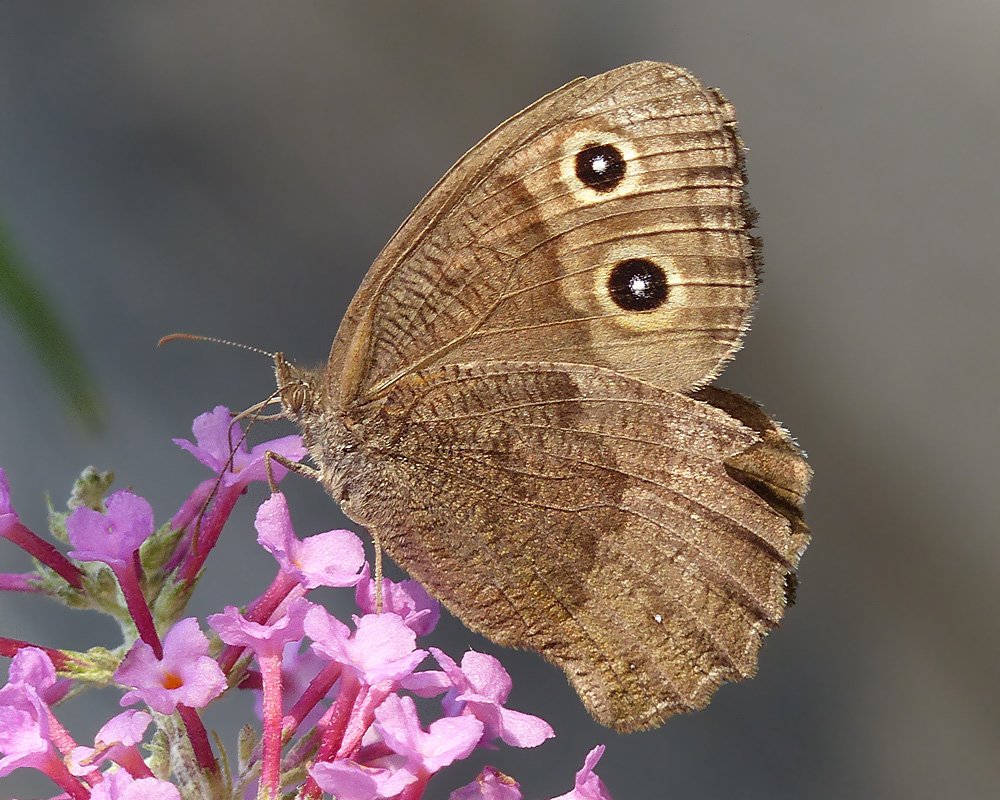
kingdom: Animalia
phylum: Arthropoda
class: Insecta
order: Lepidoptera
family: Nymphalidae
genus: Cercyonis
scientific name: Cercyonis pegala
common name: Common Wood-Nymph
